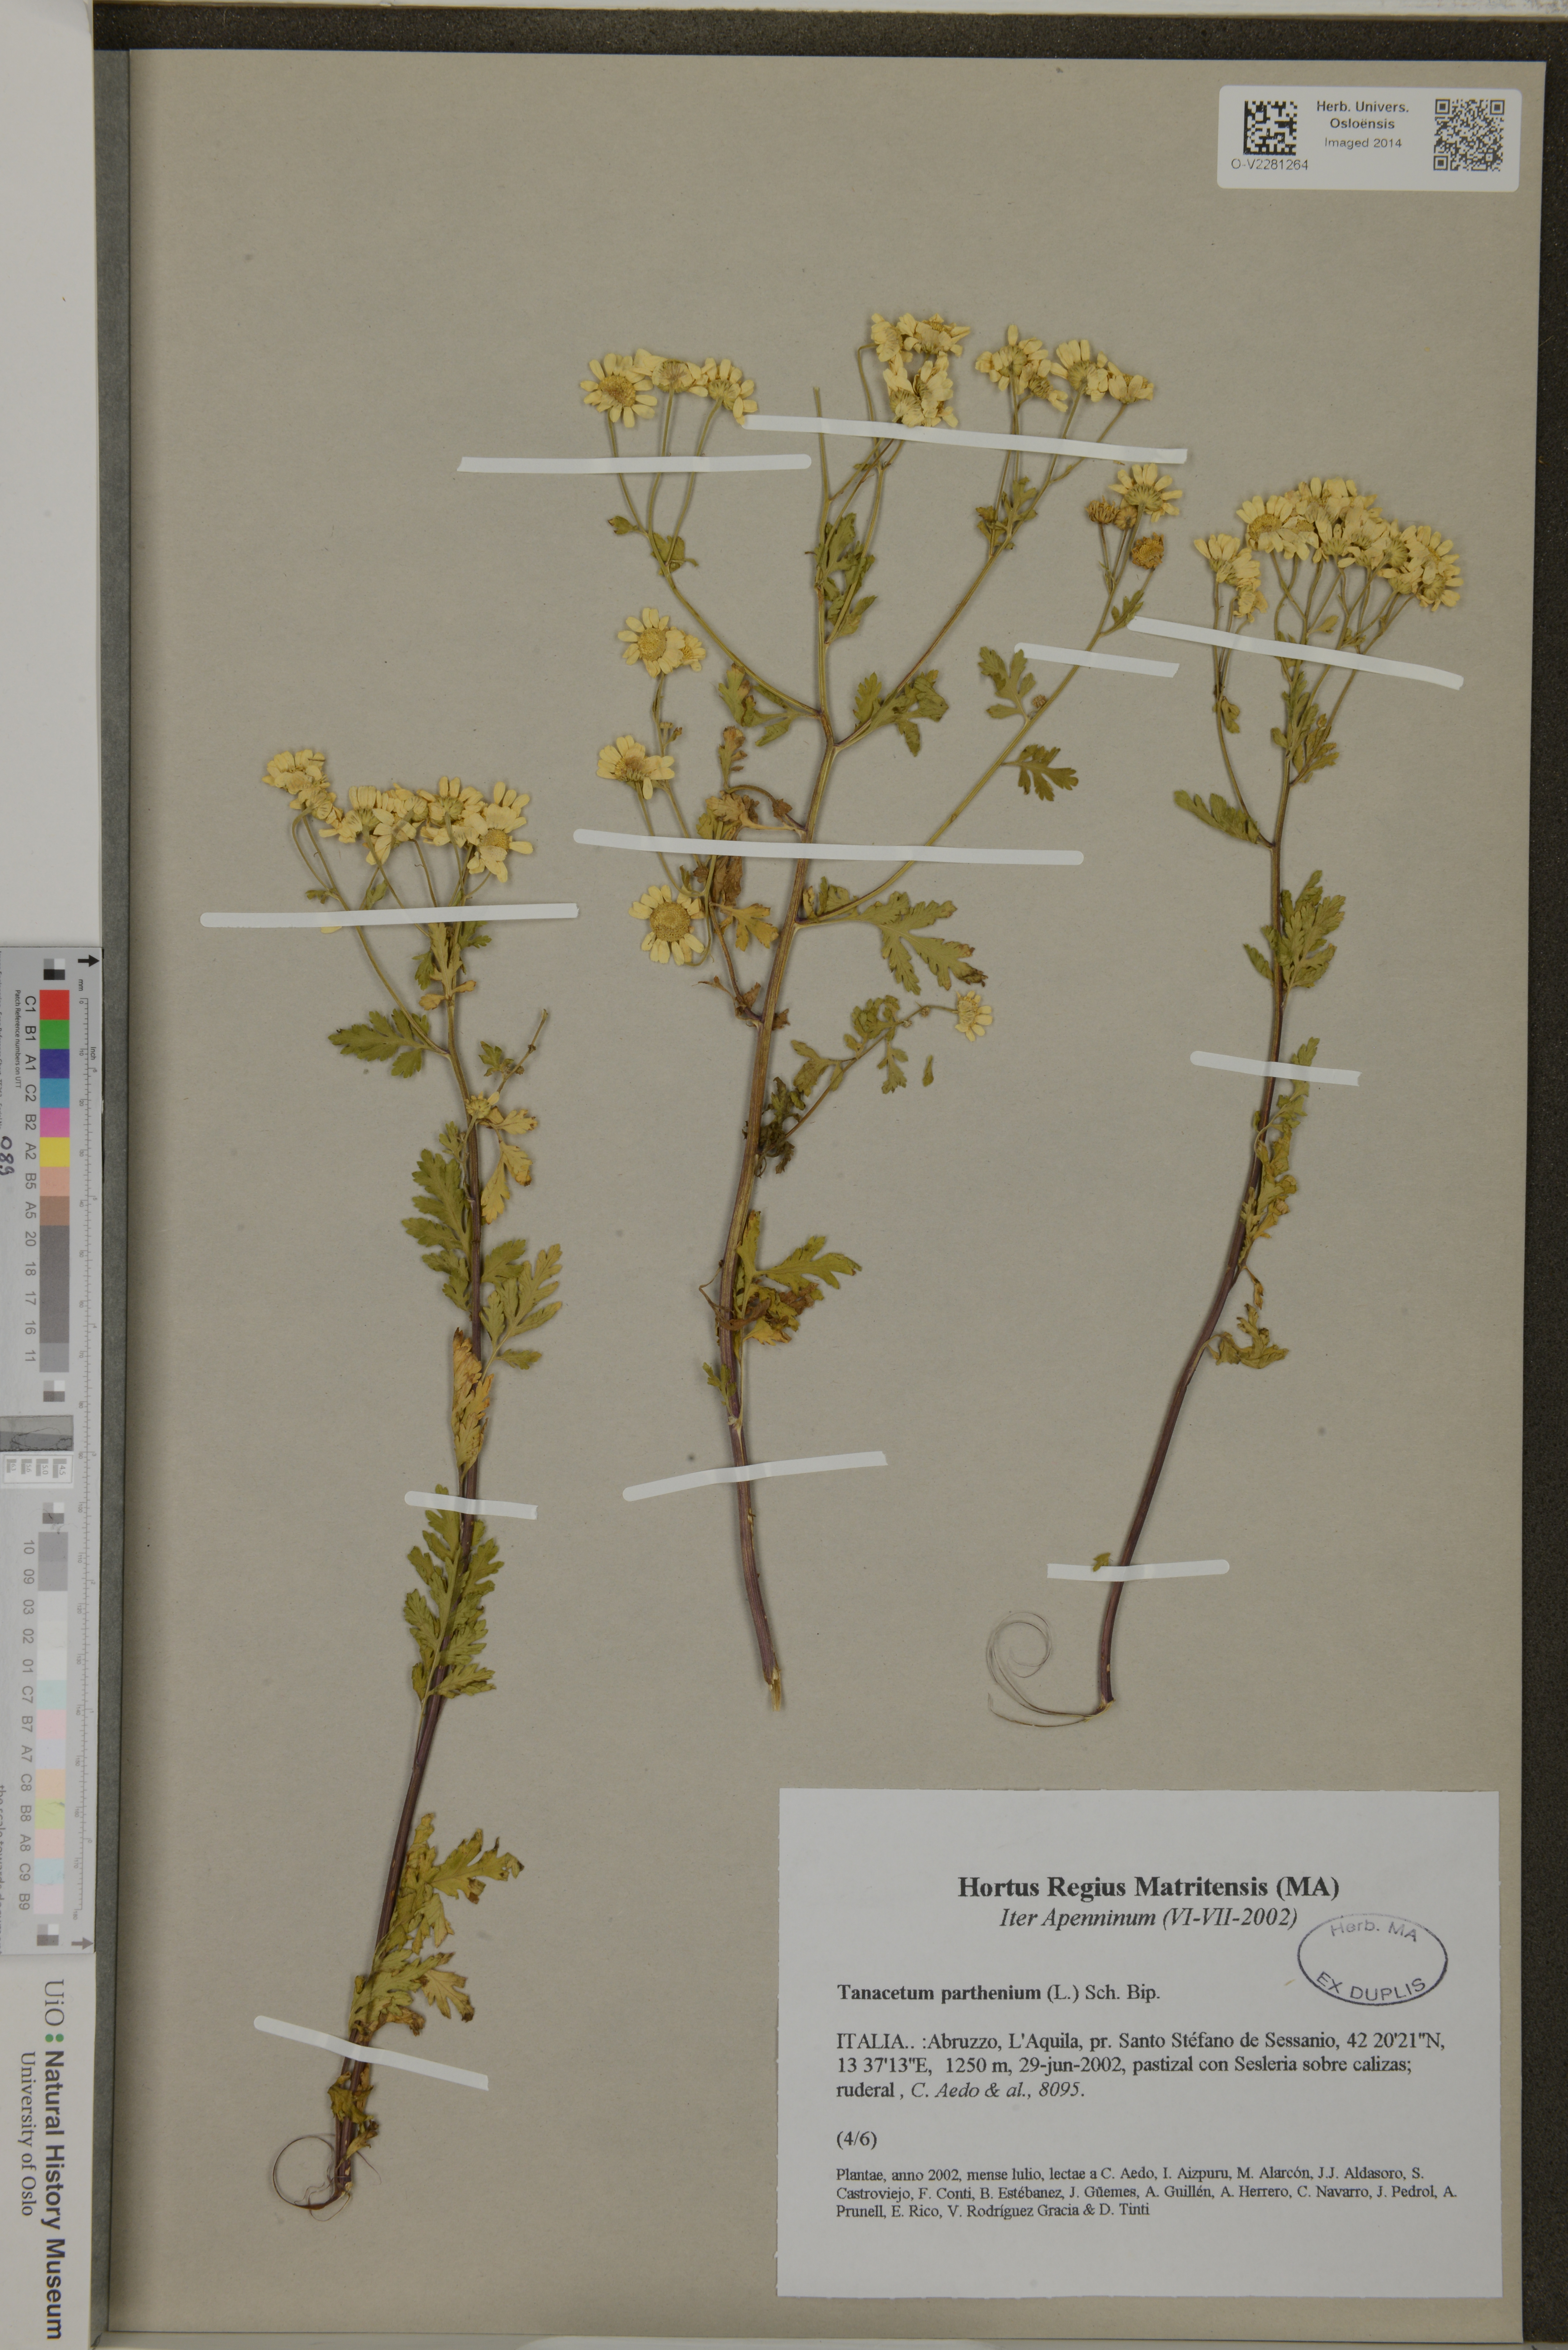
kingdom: Plantae
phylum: Tracheophyta
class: Magnoliopsida
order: Asterales
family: Asteraceae
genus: Tanacetum
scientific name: Tanacetum parthenium
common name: Feverfew
